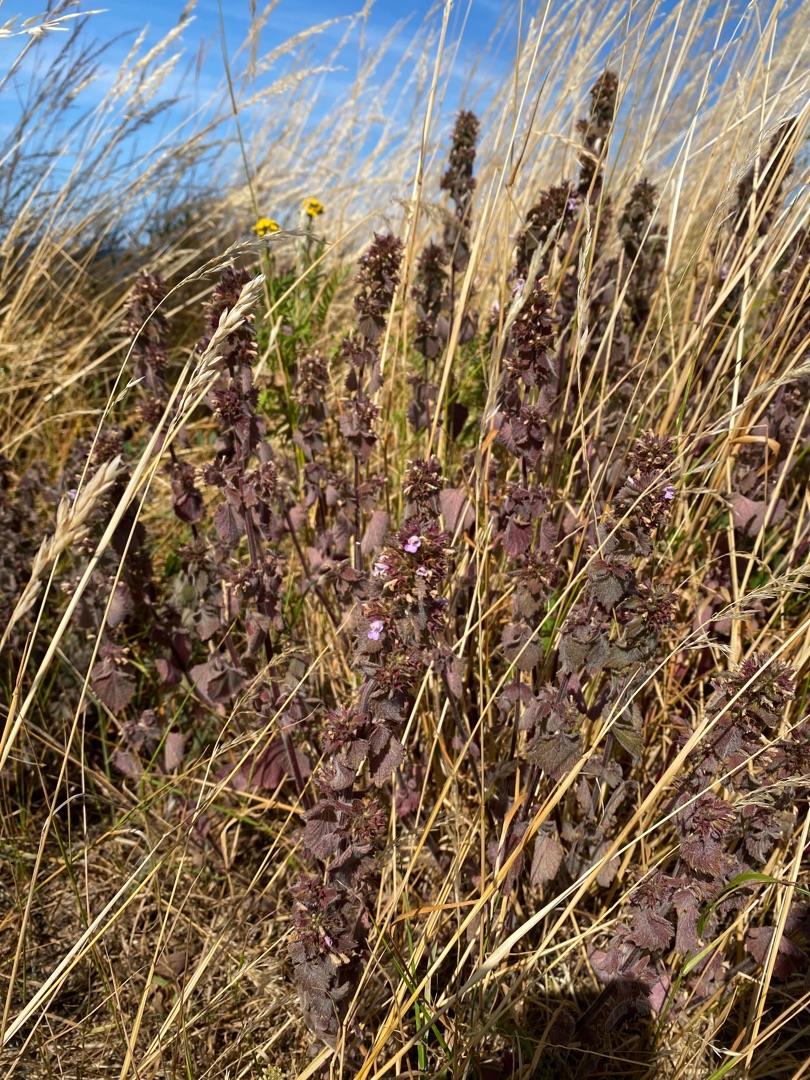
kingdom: Plantae
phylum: Tracheophyta
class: Magnoliopsida
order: Lamiales
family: Lamiaceae
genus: Ballota
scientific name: Ballota nigra
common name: Tandbæger
